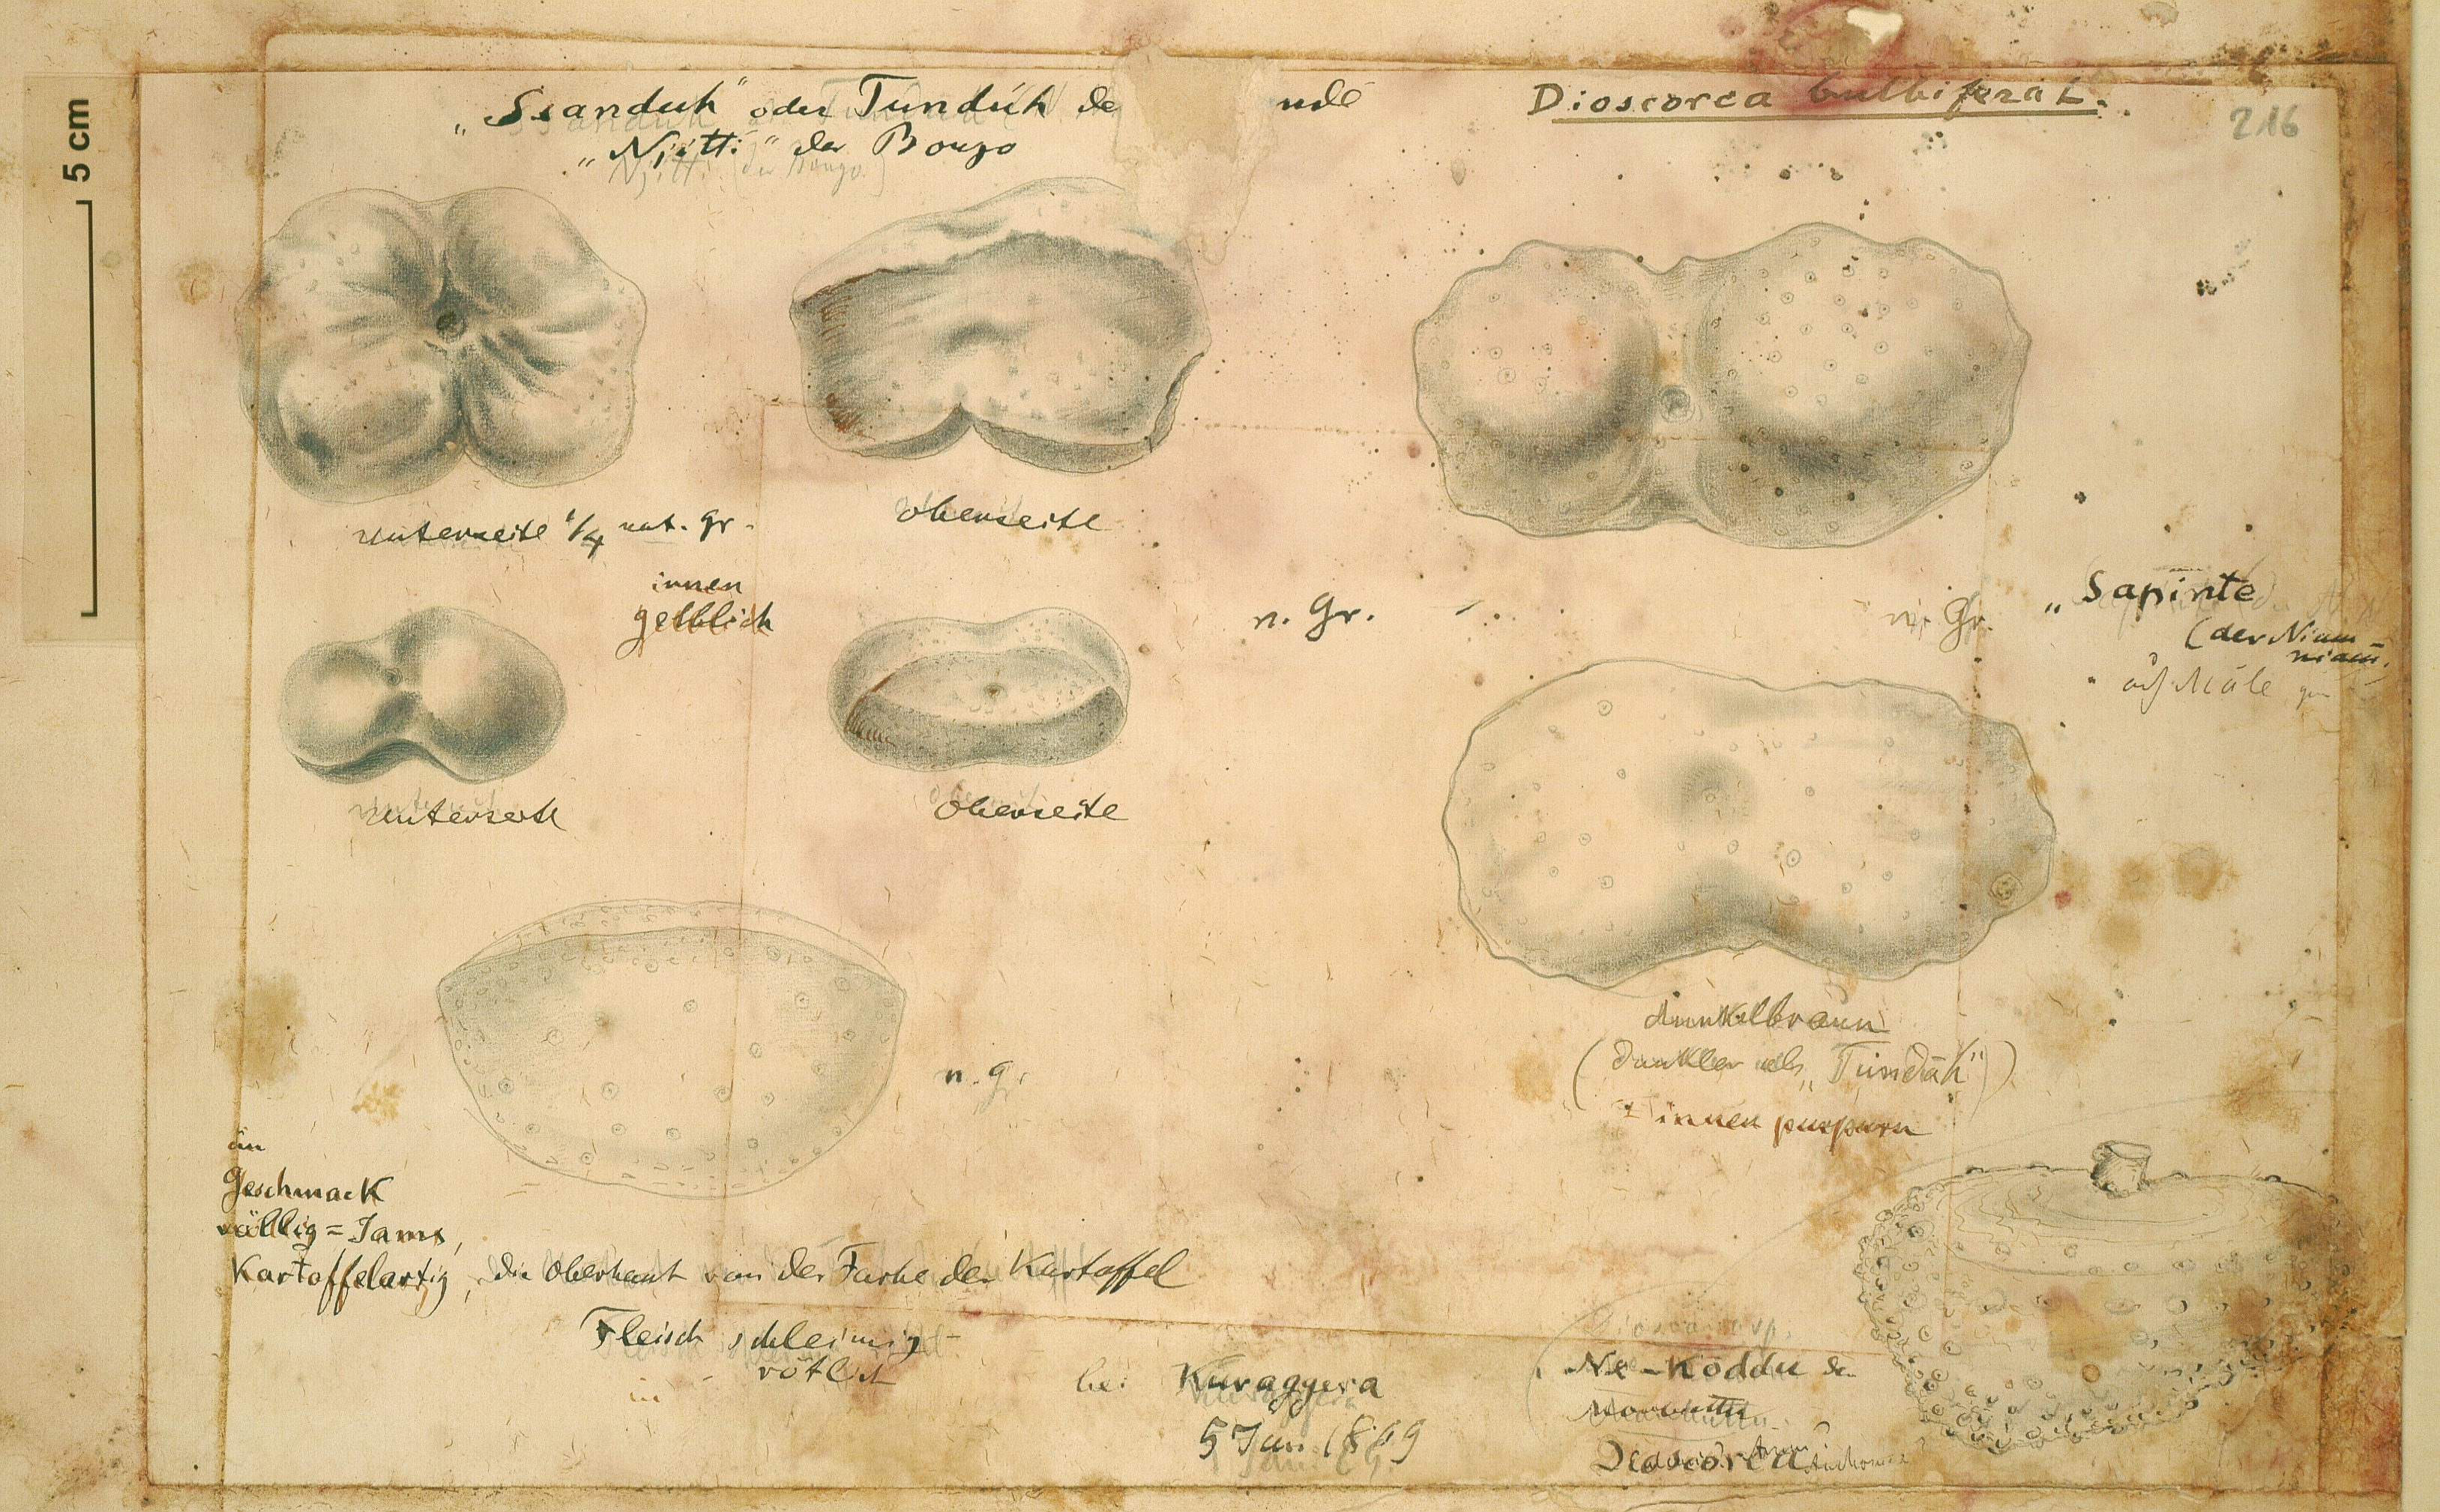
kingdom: Plantae
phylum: Tracheophyta
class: Liliopsida
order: Dioscoreales
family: Dioscoreaceae
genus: Dioscorea
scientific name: Dioscorea bulbifera
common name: Air yam
